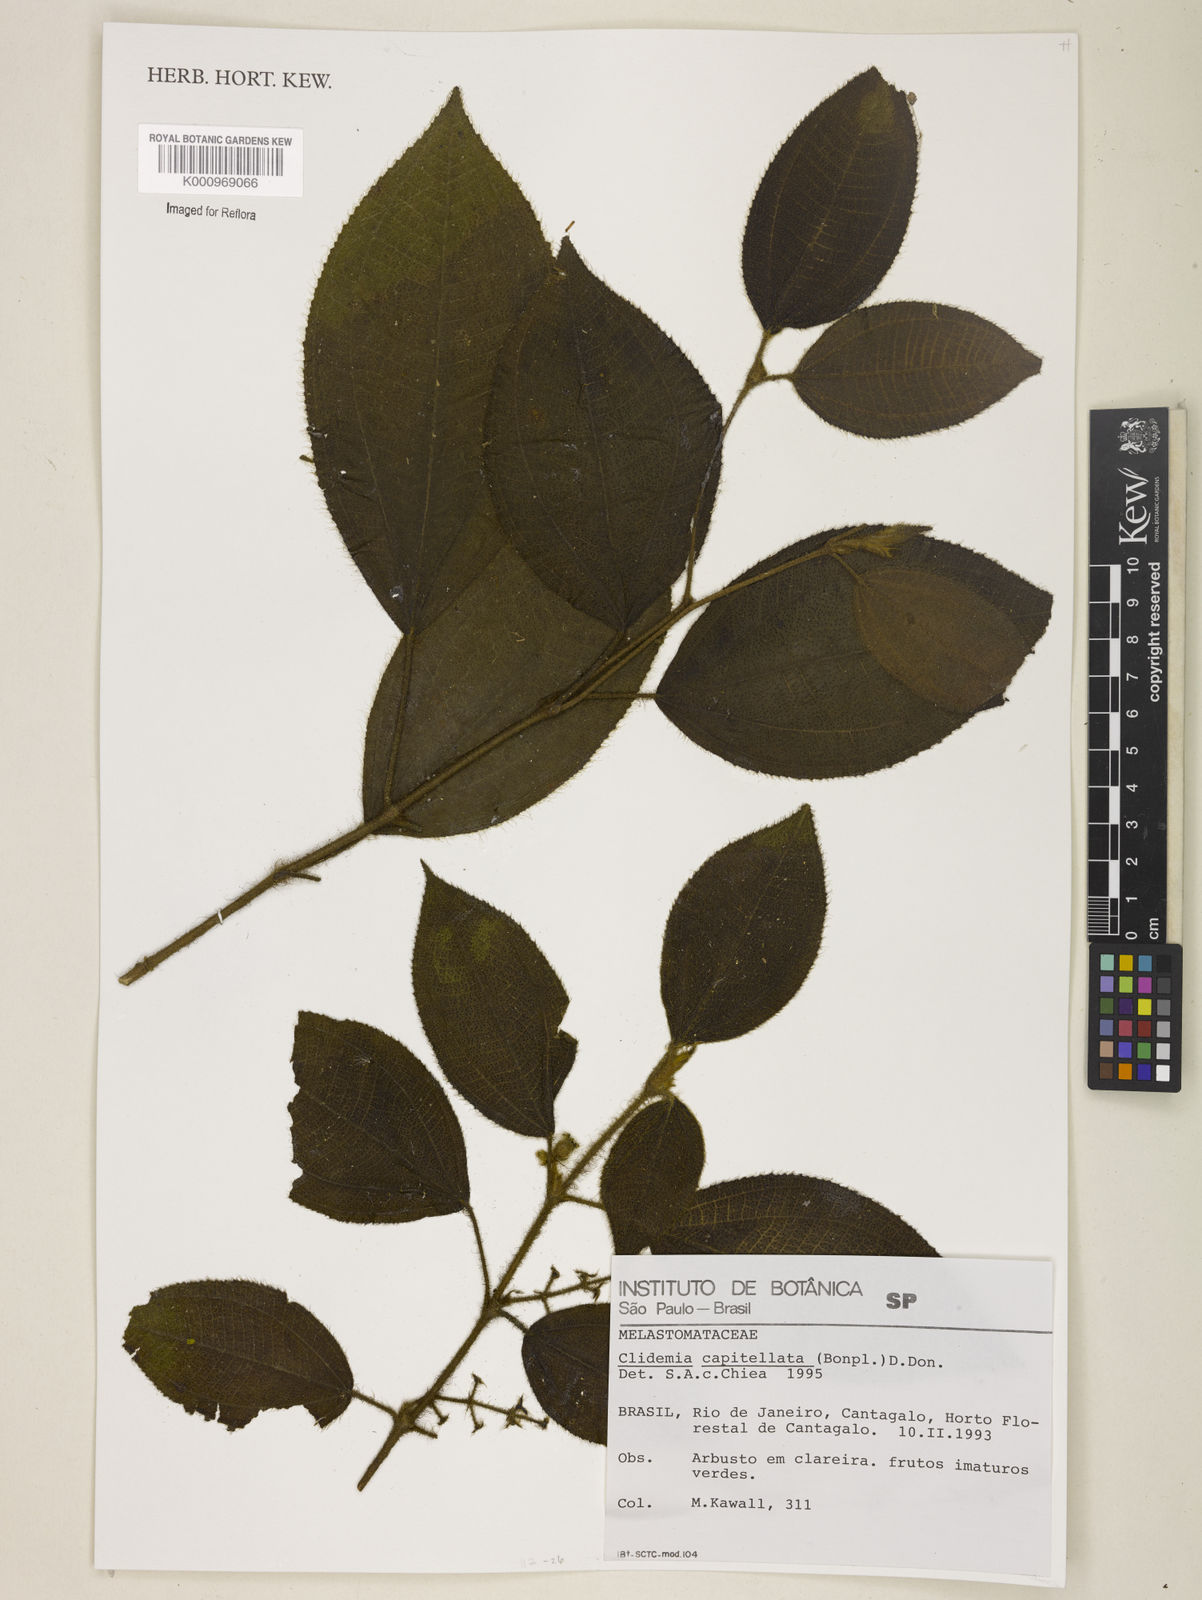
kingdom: Plantae
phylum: Tracheophyta
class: Magnoliopsida
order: Myrtales
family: Melastomataceae
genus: Miconia
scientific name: Miconia dependens
